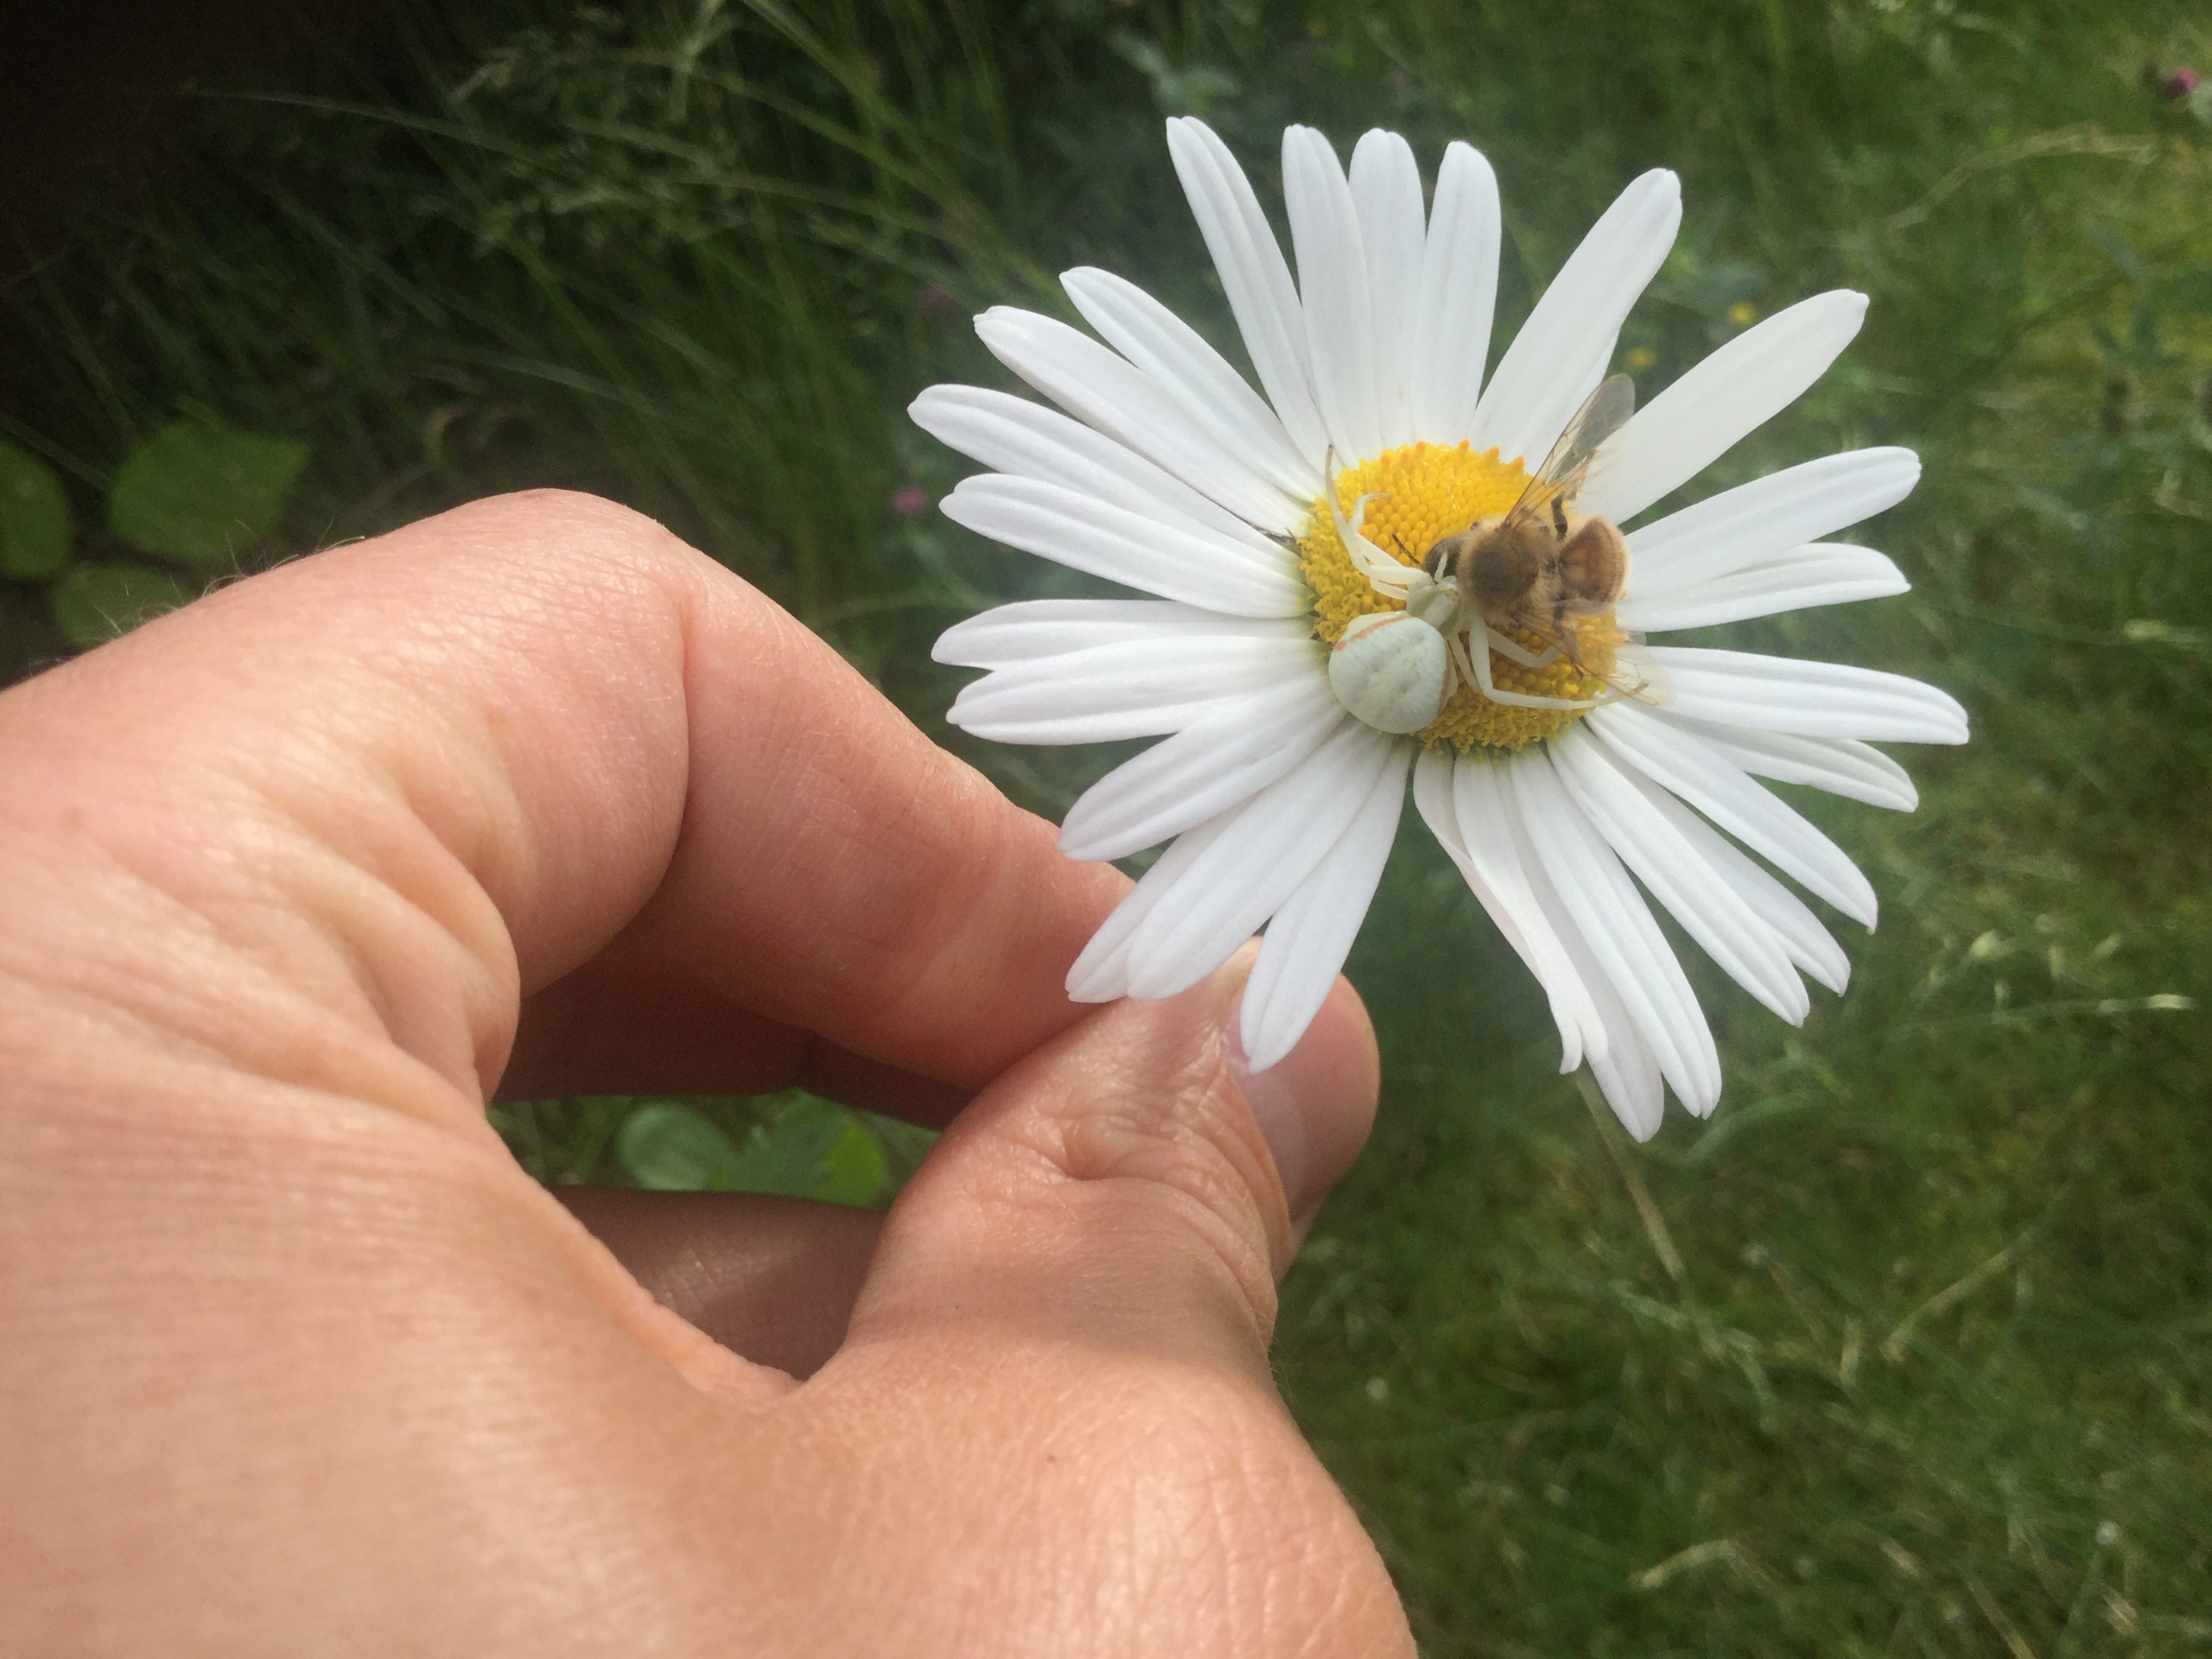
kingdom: Animalia
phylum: Arthropoda
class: Arachnida
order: Araneae
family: Thomisidae
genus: Misumena
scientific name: Misumena vatia
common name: Kamæleonedderkop
